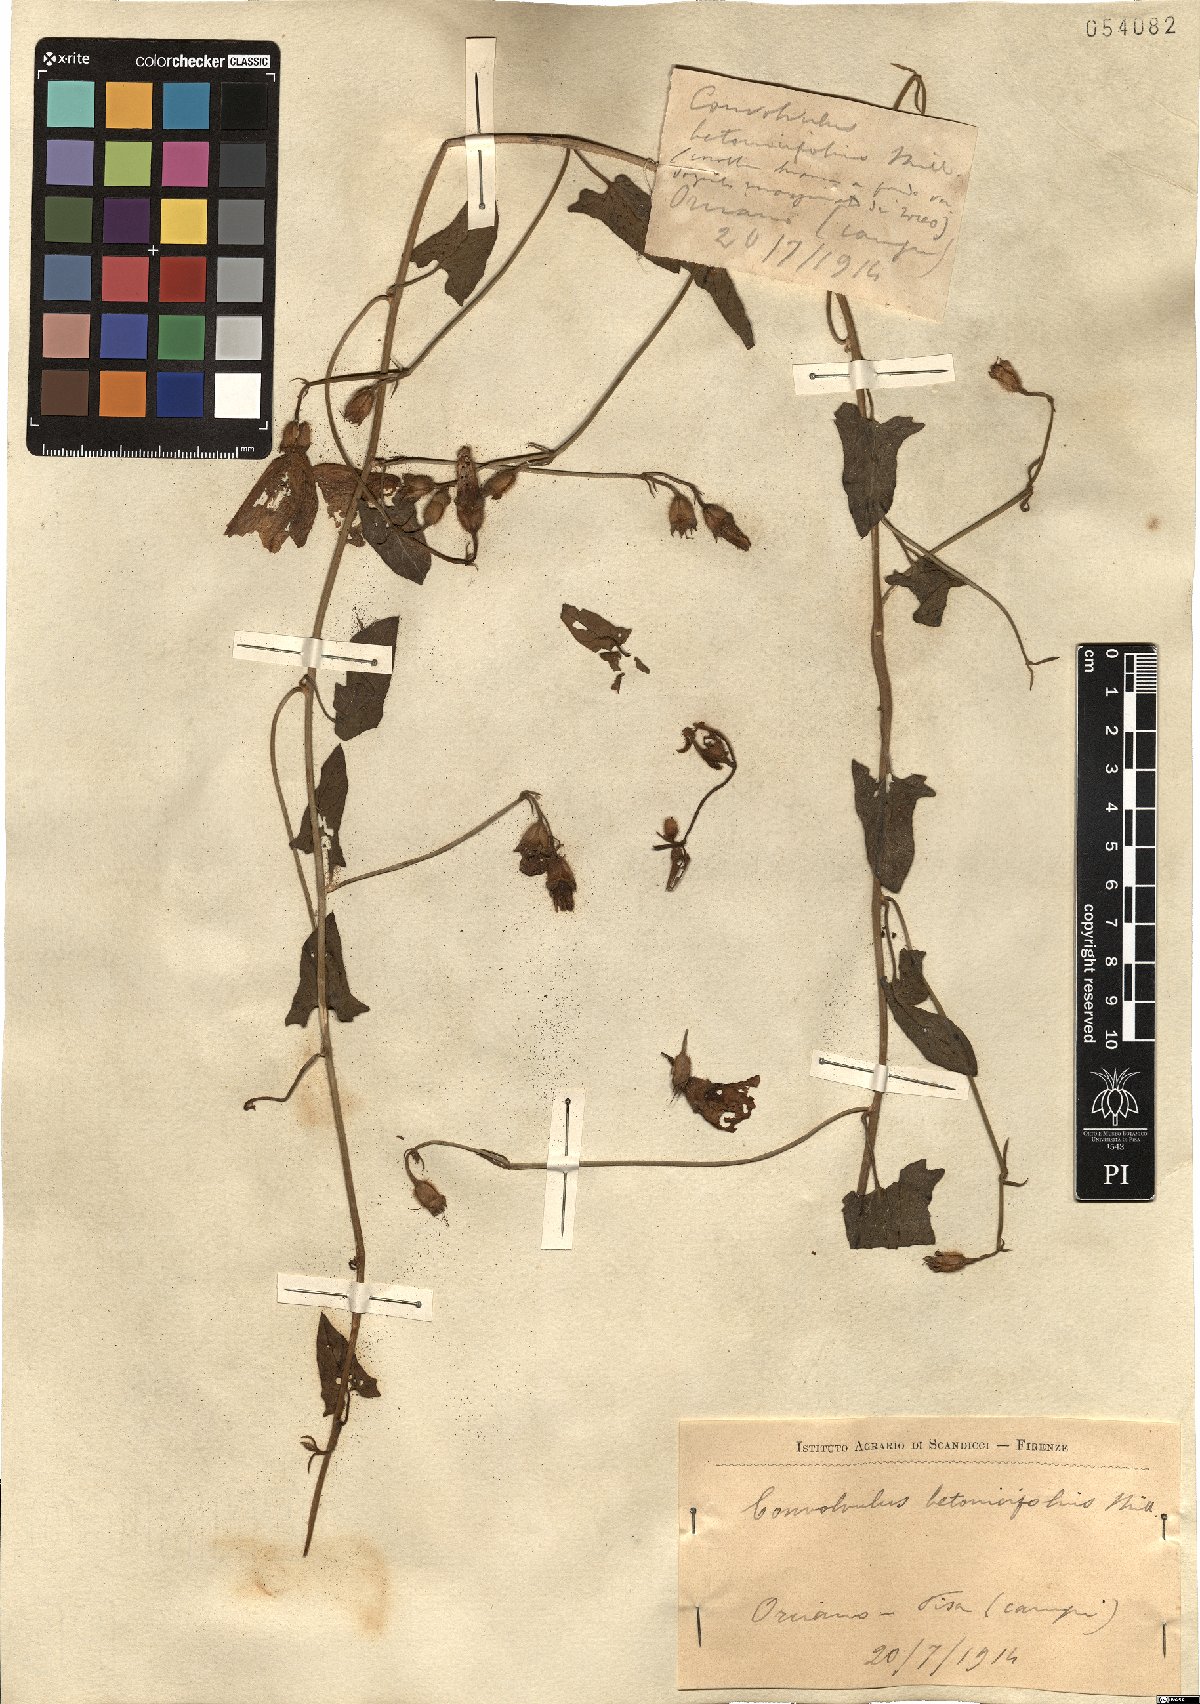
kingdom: Plantae
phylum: Tracheophyta
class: Magnoliopsida
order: Solanales
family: Convolvulaceae
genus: Convolvulus
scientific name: Convolvulus betonicifolius
